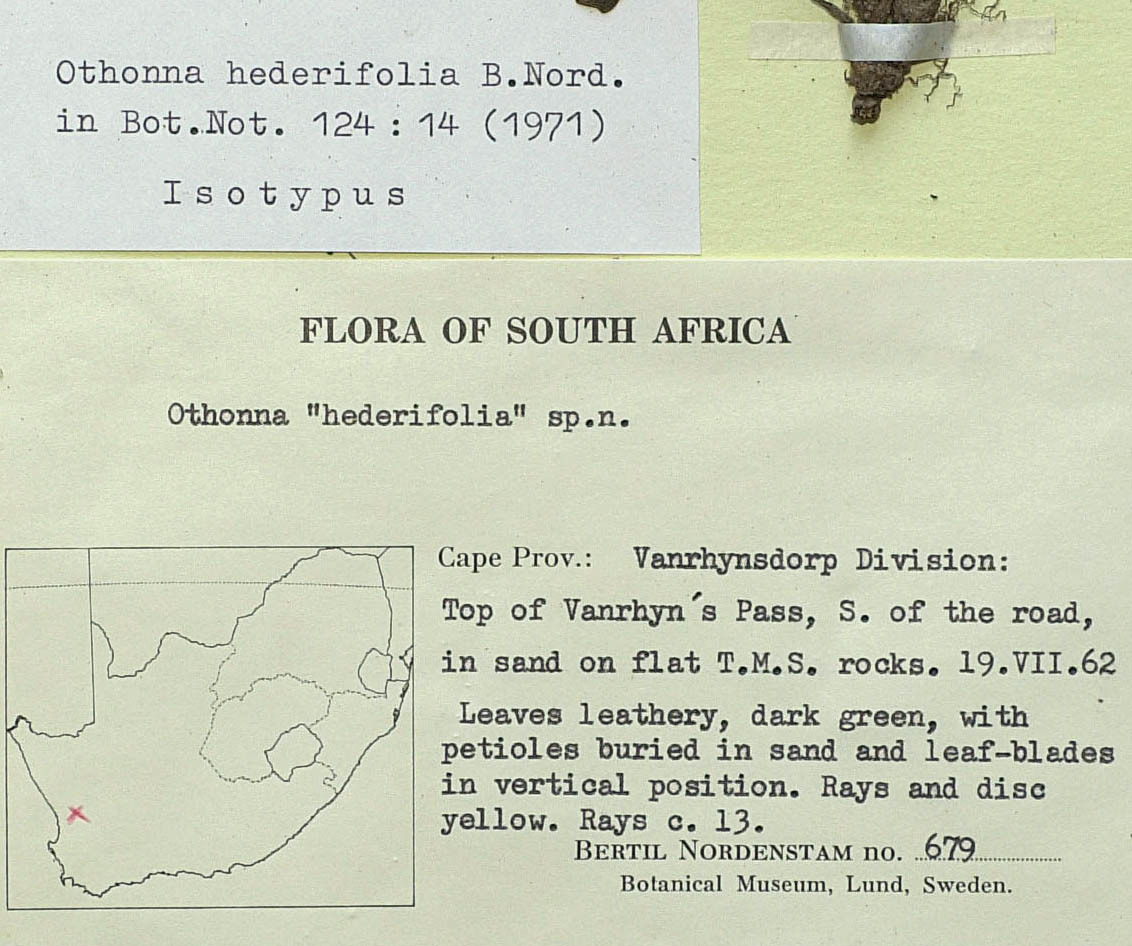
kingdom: Plantae
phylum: Tracheophyta
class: Magnoliopsida
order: Asterales
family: Asteraceae
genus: Othonna
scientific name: Othonna hederifolia
